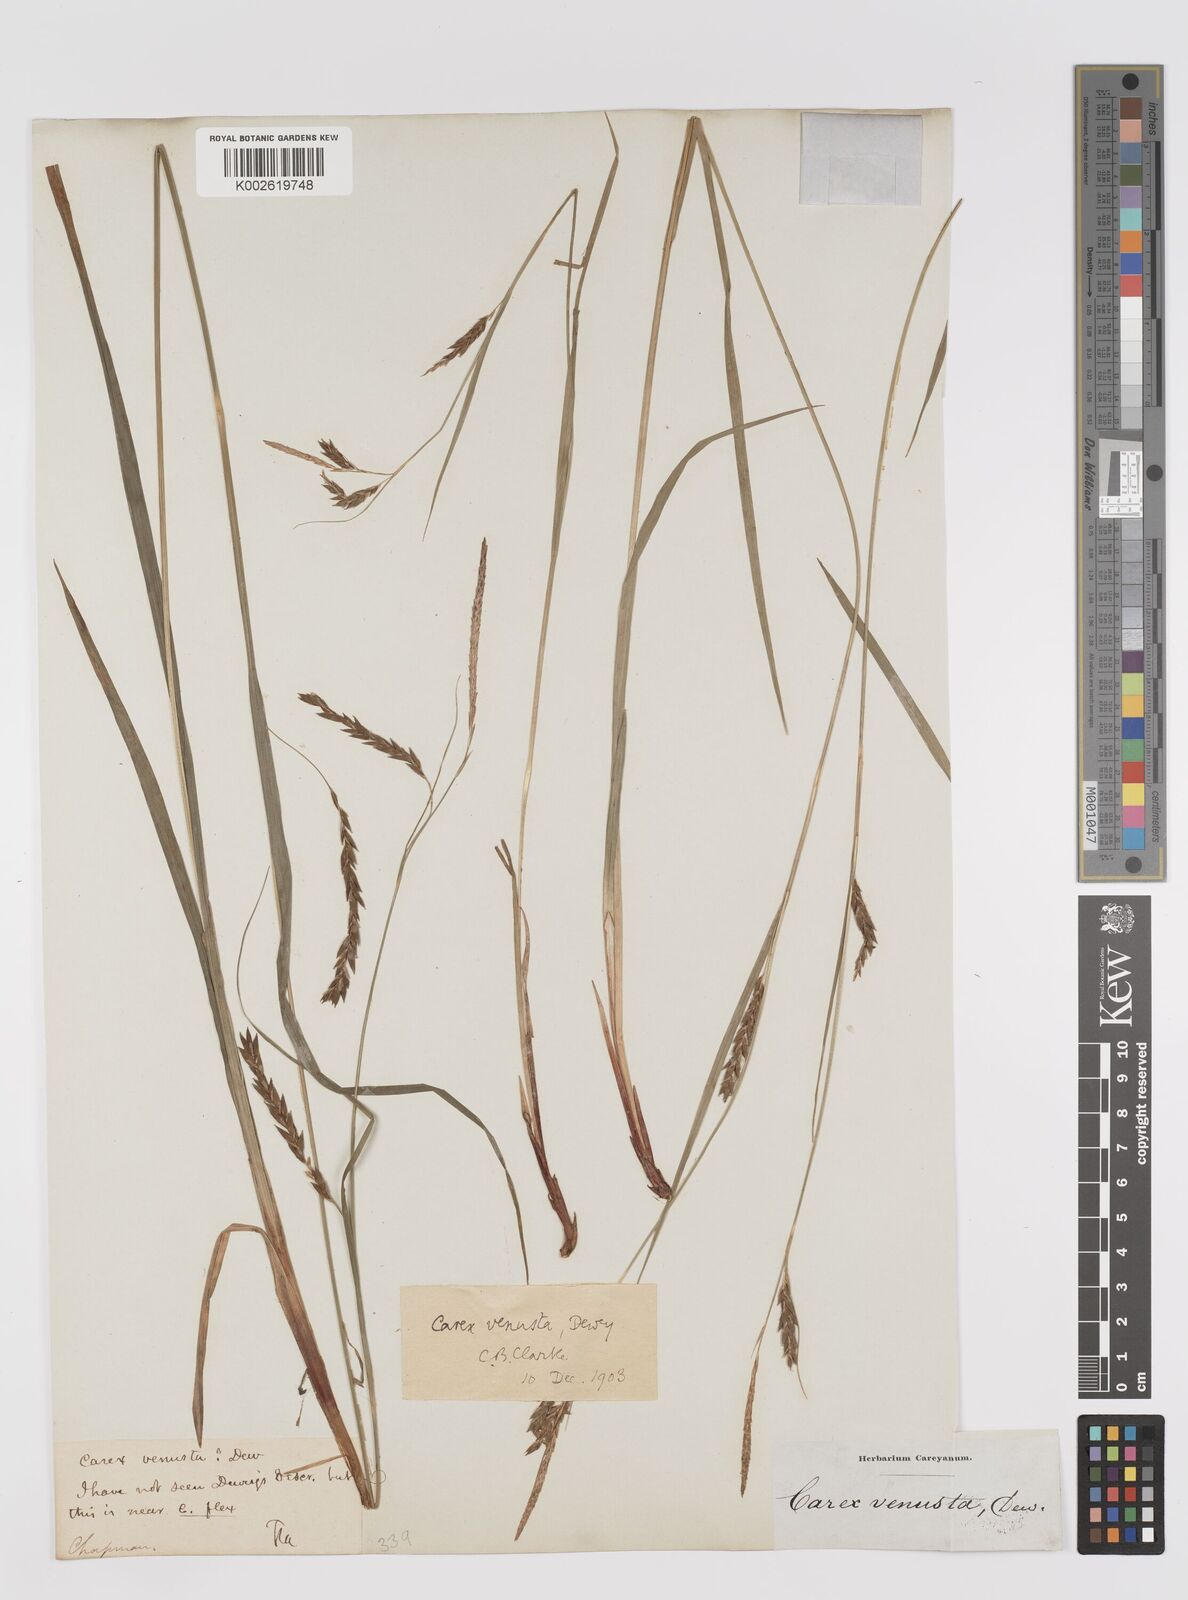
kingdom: Plantae
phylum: Tracheophyta
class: Liliopsida
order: Poales
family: Cyperaceae
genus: Carex
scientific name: Carex venusta
